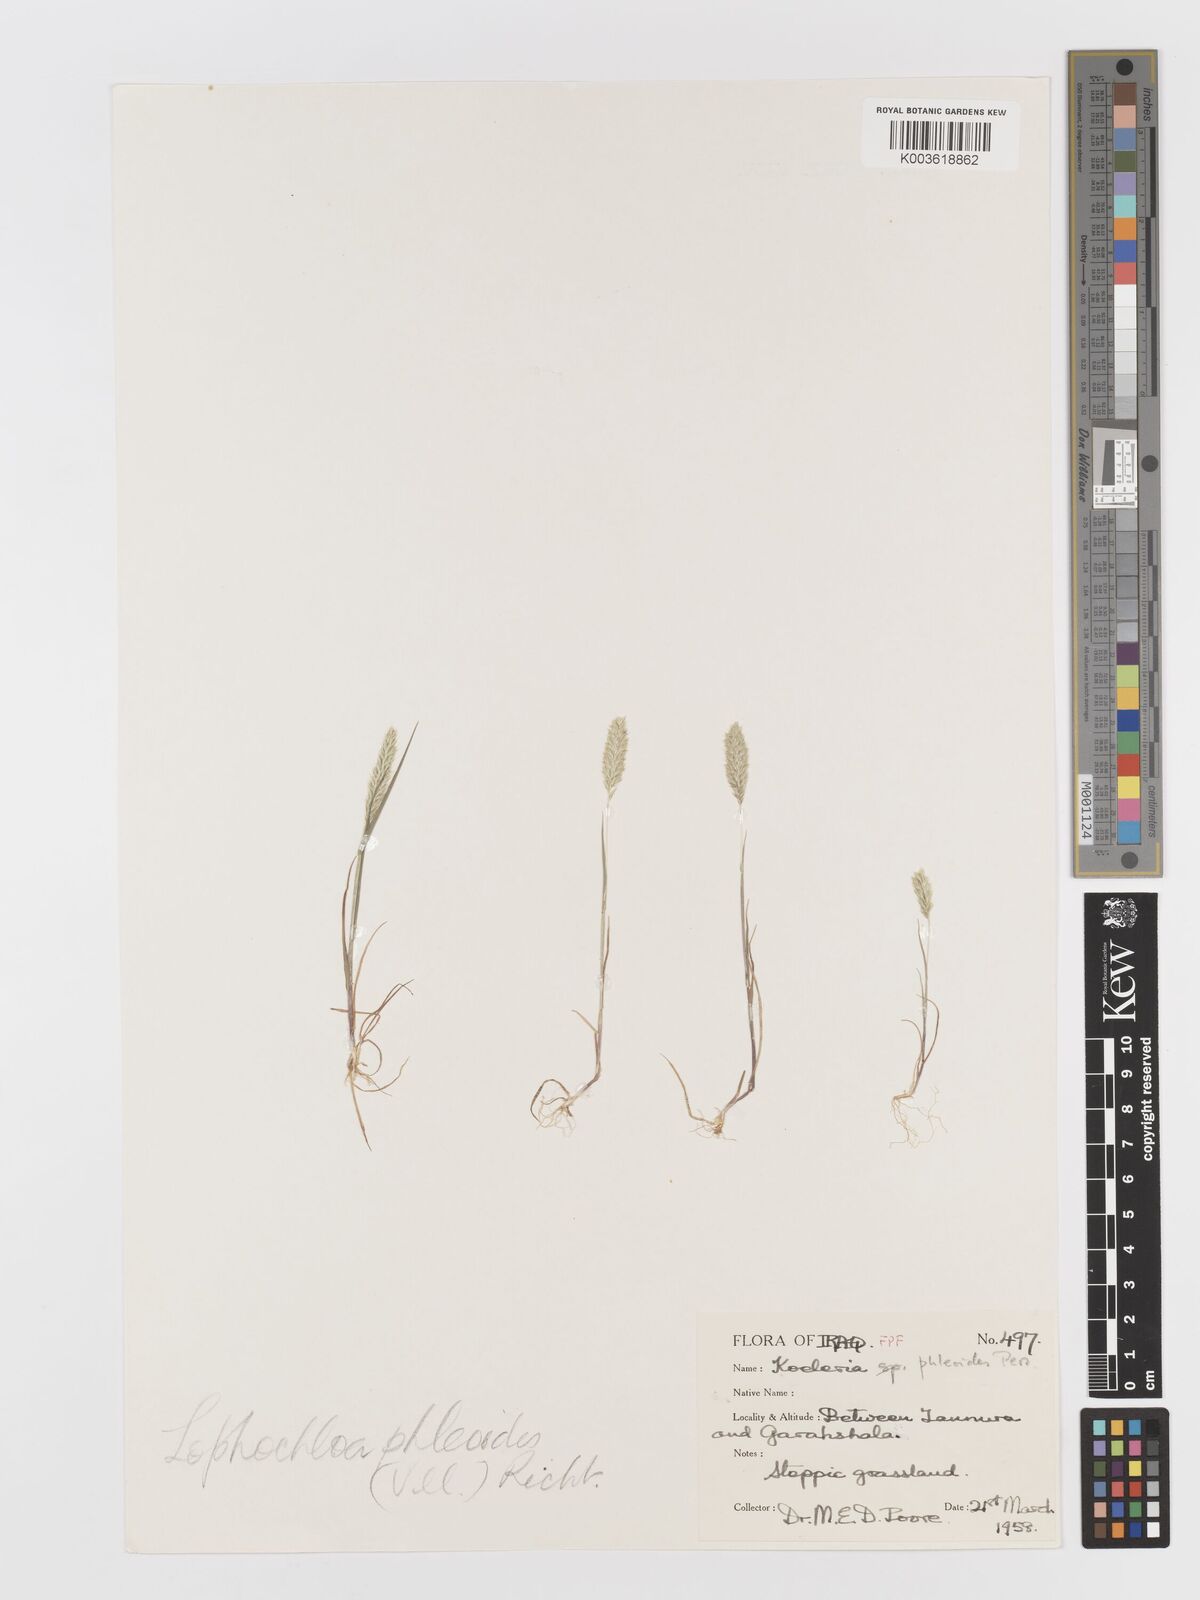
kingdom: Plantae
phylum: Tracheophyta
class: Liliopsida
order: Poales
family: Poaceae
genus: Rostraria
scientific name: Rostraria cristata
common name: Mediterranean hair-grass
